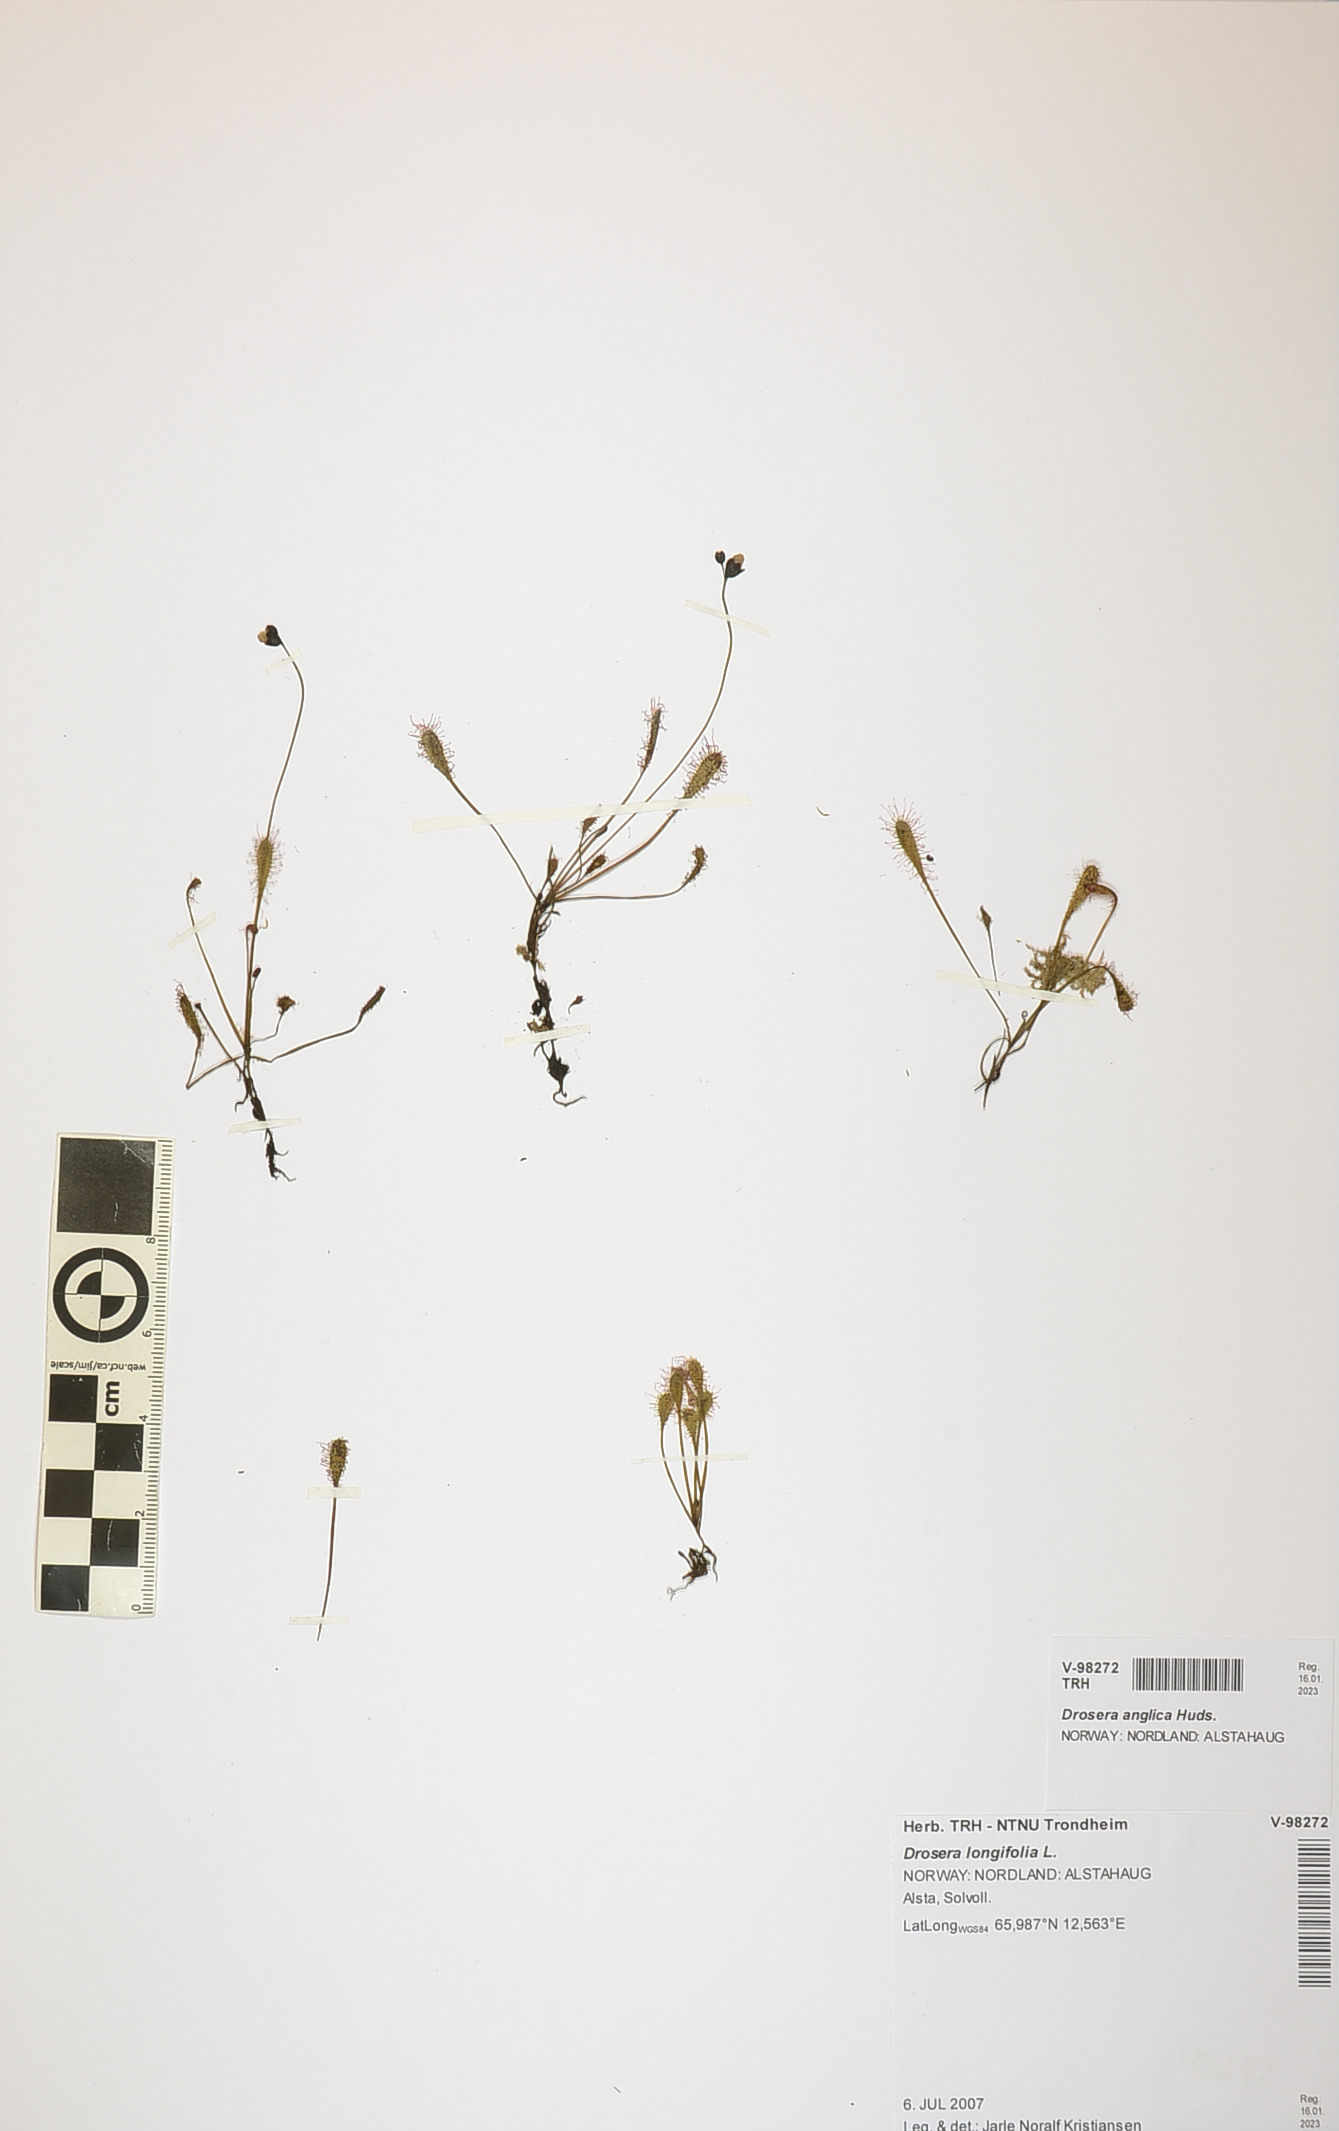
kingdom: Plantae
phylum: Tracheophyta
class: Magnoliopsida
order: Caryophyllales
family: Droseraceae
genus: Drosera
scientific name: Drosera anglica
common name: Great sundew
